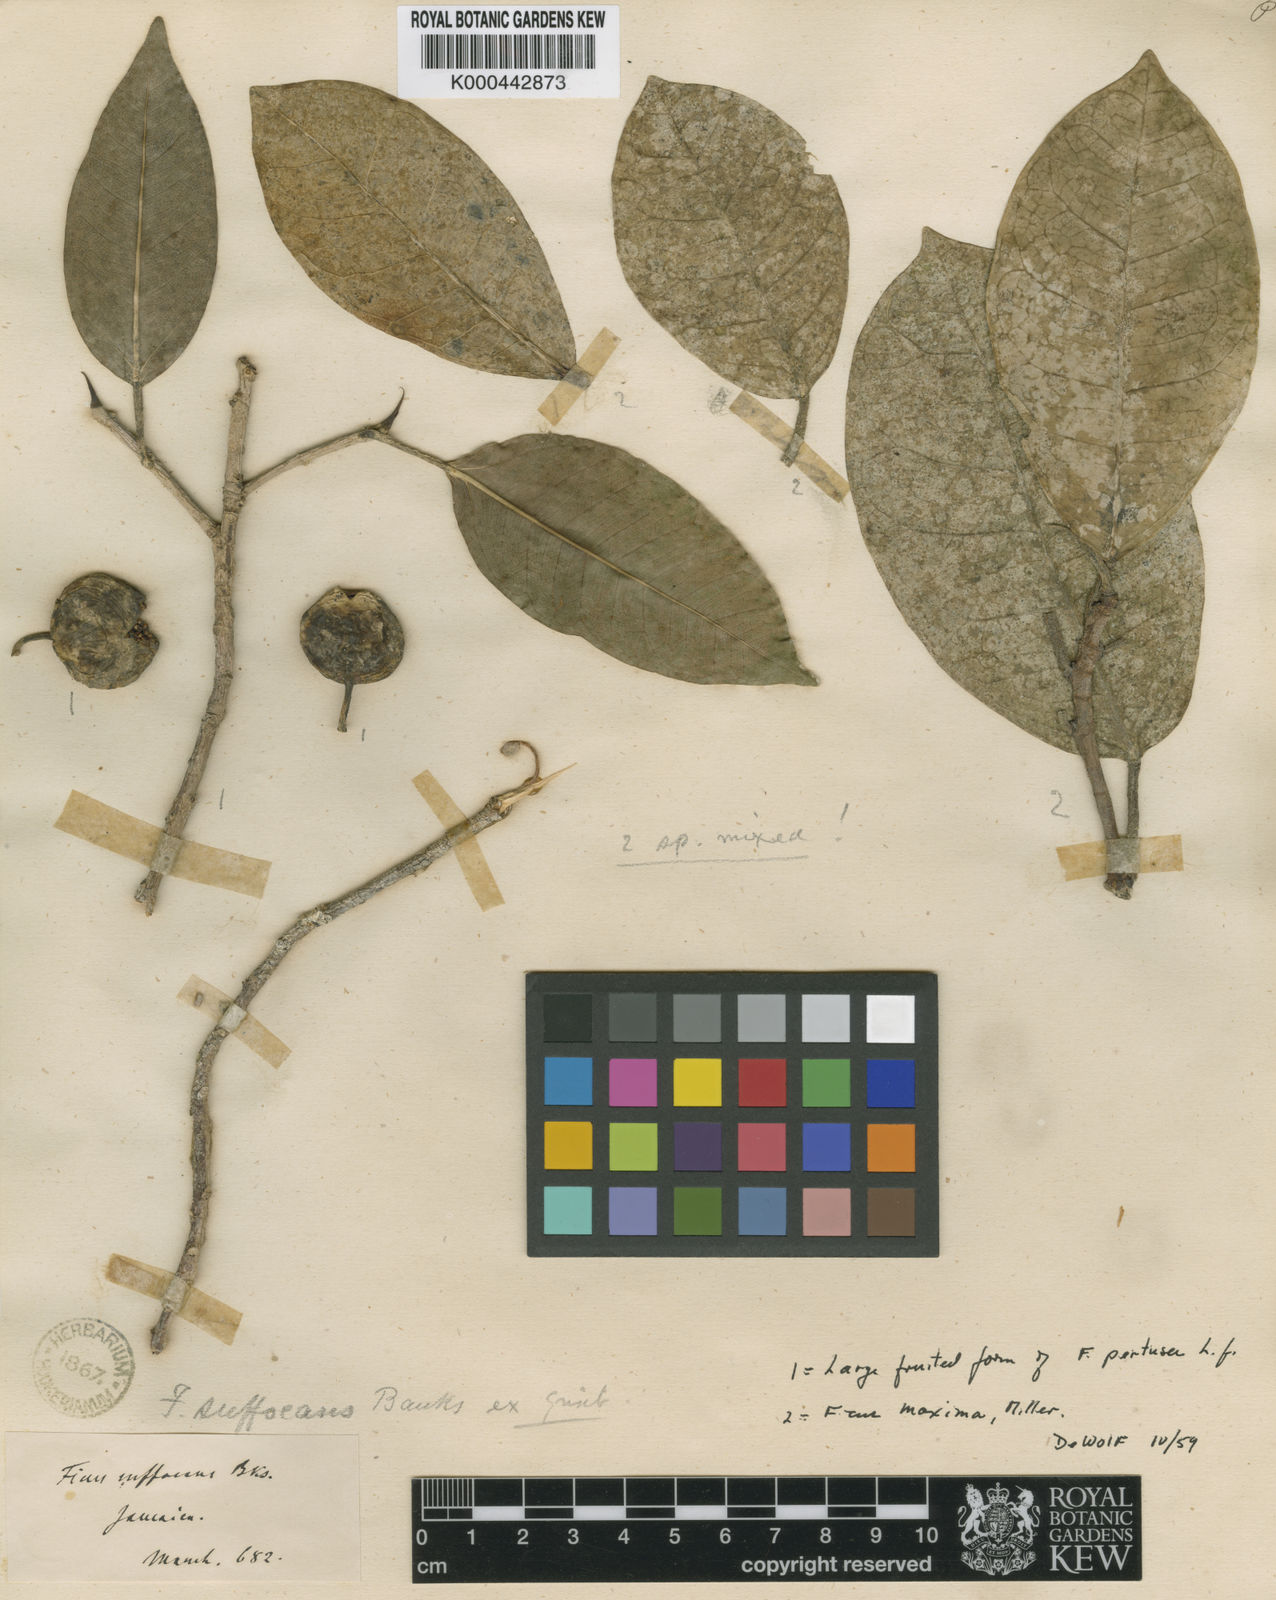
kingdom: Plantae
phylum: Tracheophyta
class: Magnoliopsida
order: Rosales
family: Moraceae
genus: Ficus
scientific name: Ficus maxima
